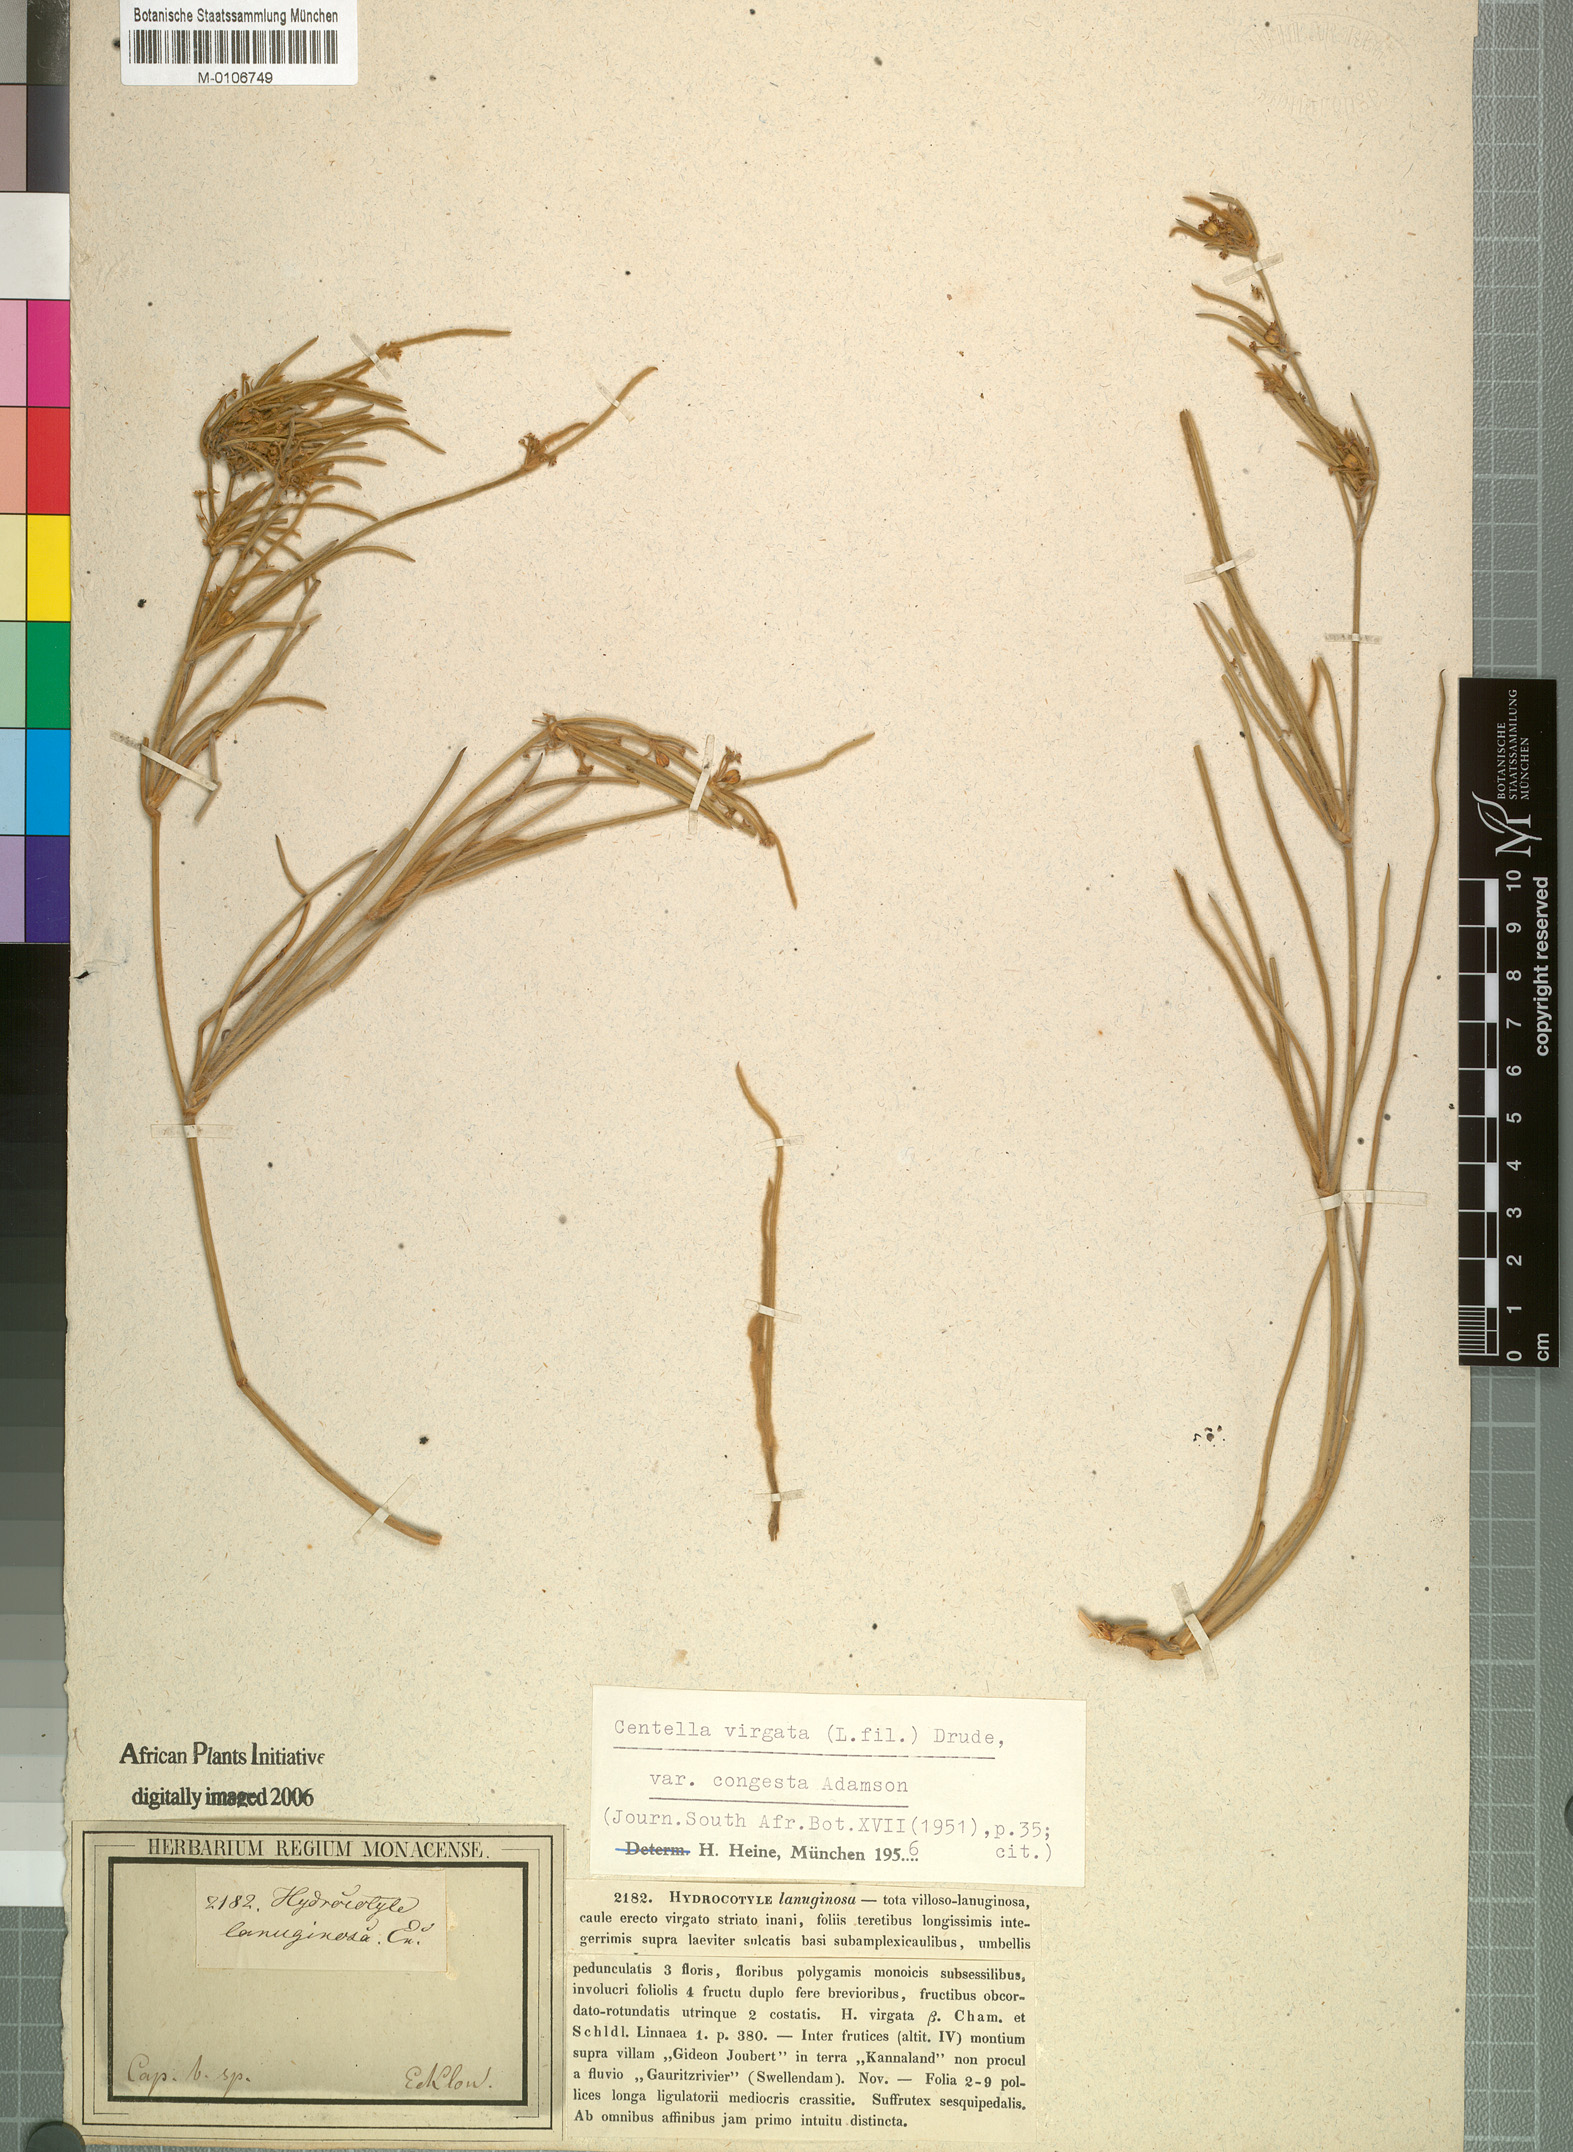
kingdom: Plantae
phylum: Tracheophyta
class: Magnoliopsida
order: Apiales
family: Apiaceae
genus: Centella
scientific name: Centella virgata
